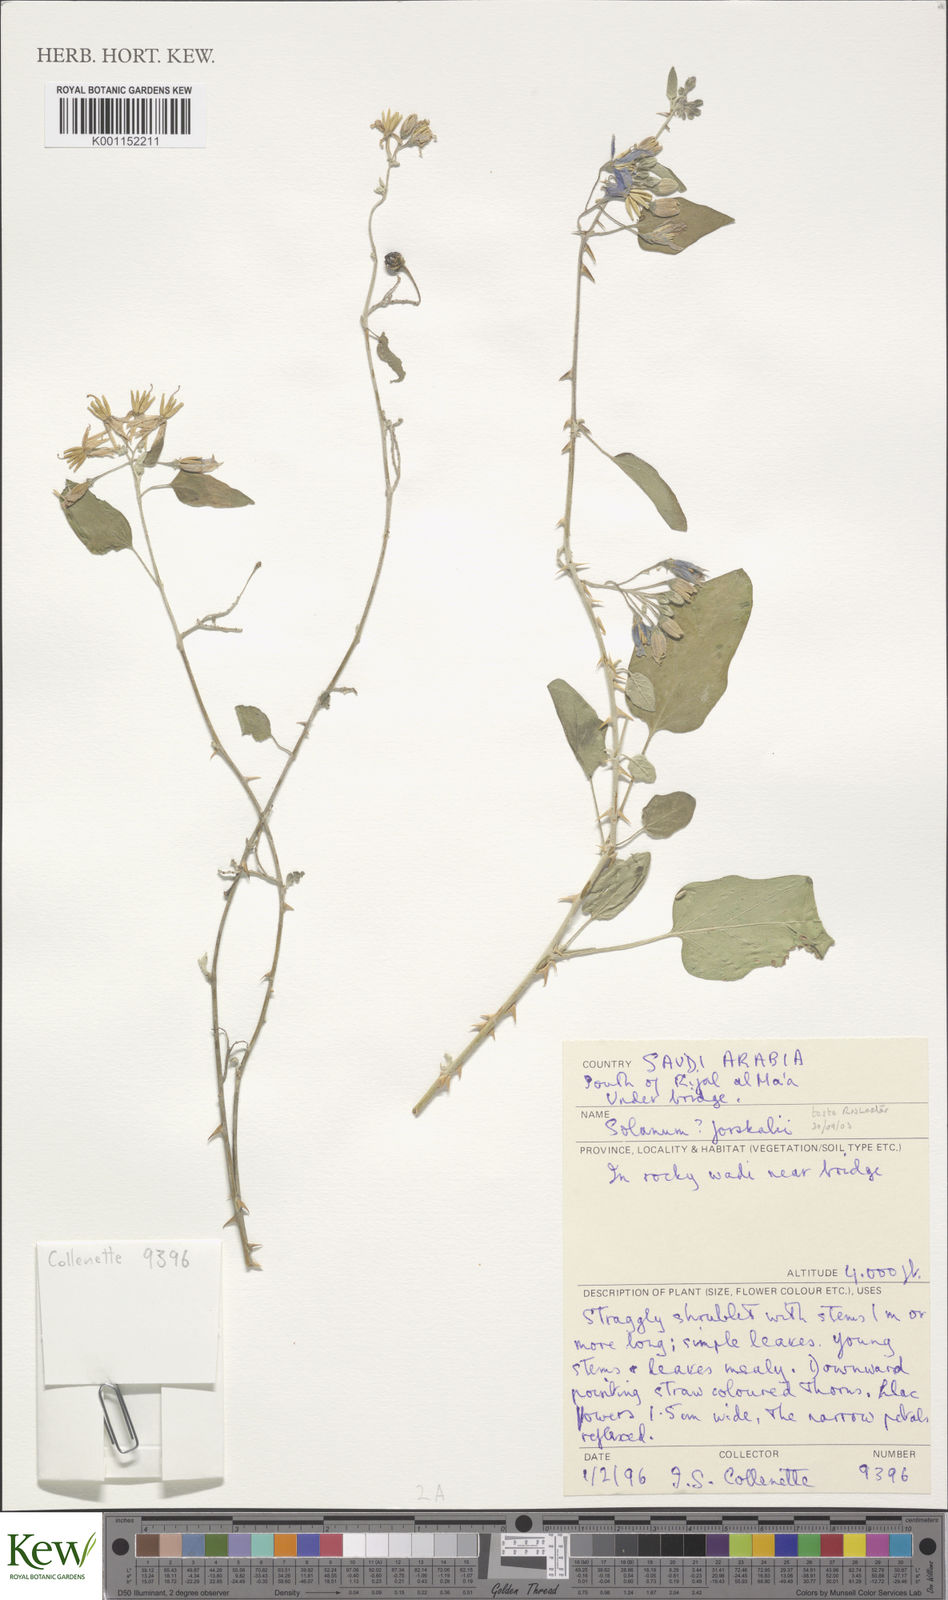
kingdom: Plantae
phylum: Tracheophyta
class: Magnoliopsida
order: Solanales
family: Solanaceae
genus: Solanum
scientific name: Solanum
